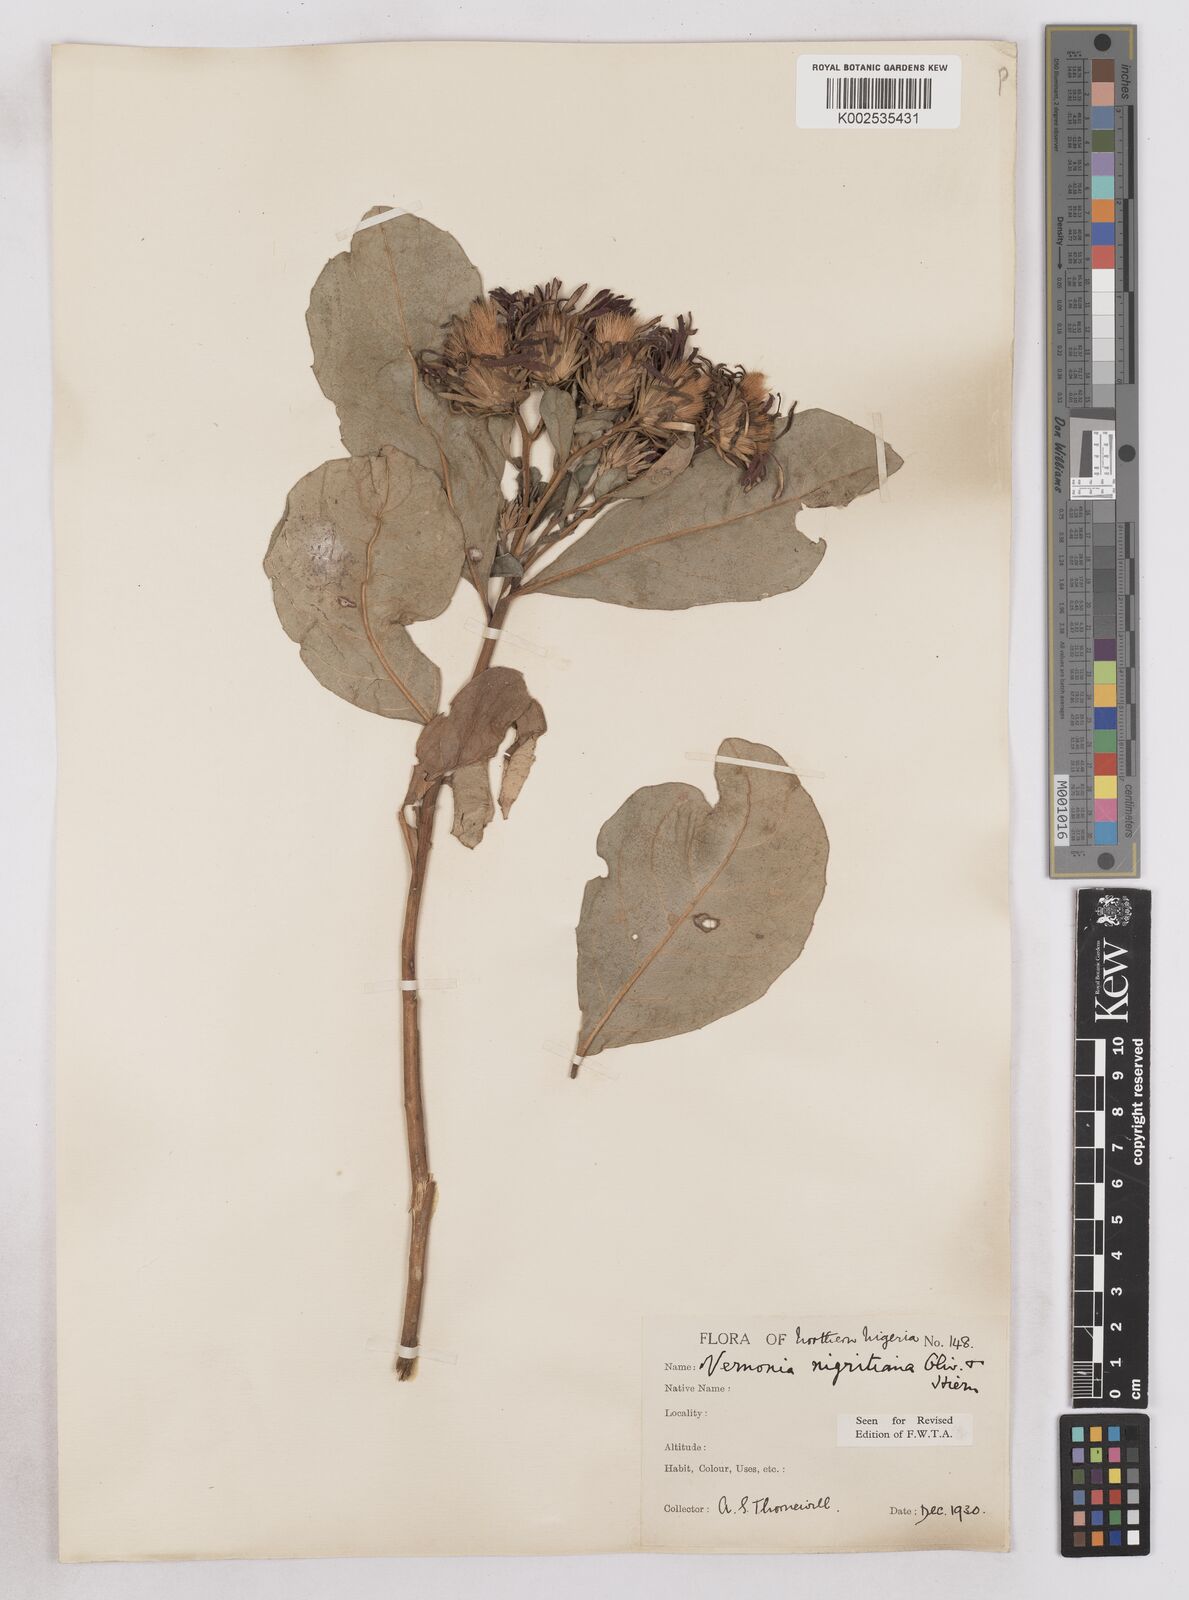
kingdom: Plantae
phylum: Tracheophyta
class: Magnoliopsida
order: Asterales
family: Asteraceae
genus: Linzia
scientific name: Linzia nigritiana
